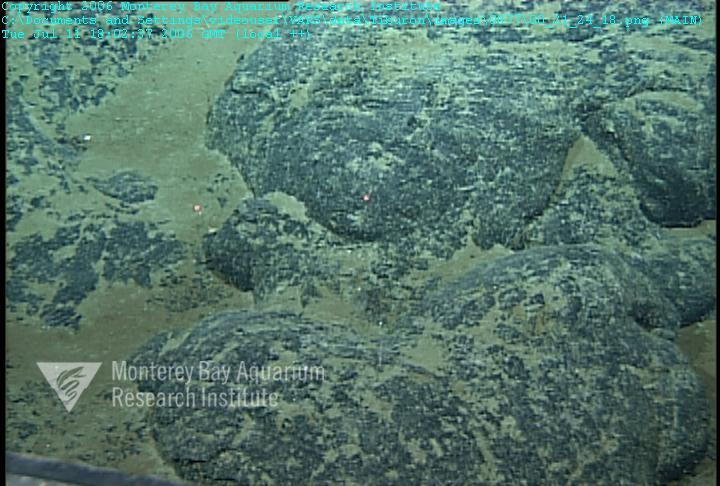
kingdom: Animalia
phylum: Porifera
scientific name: Porifera
